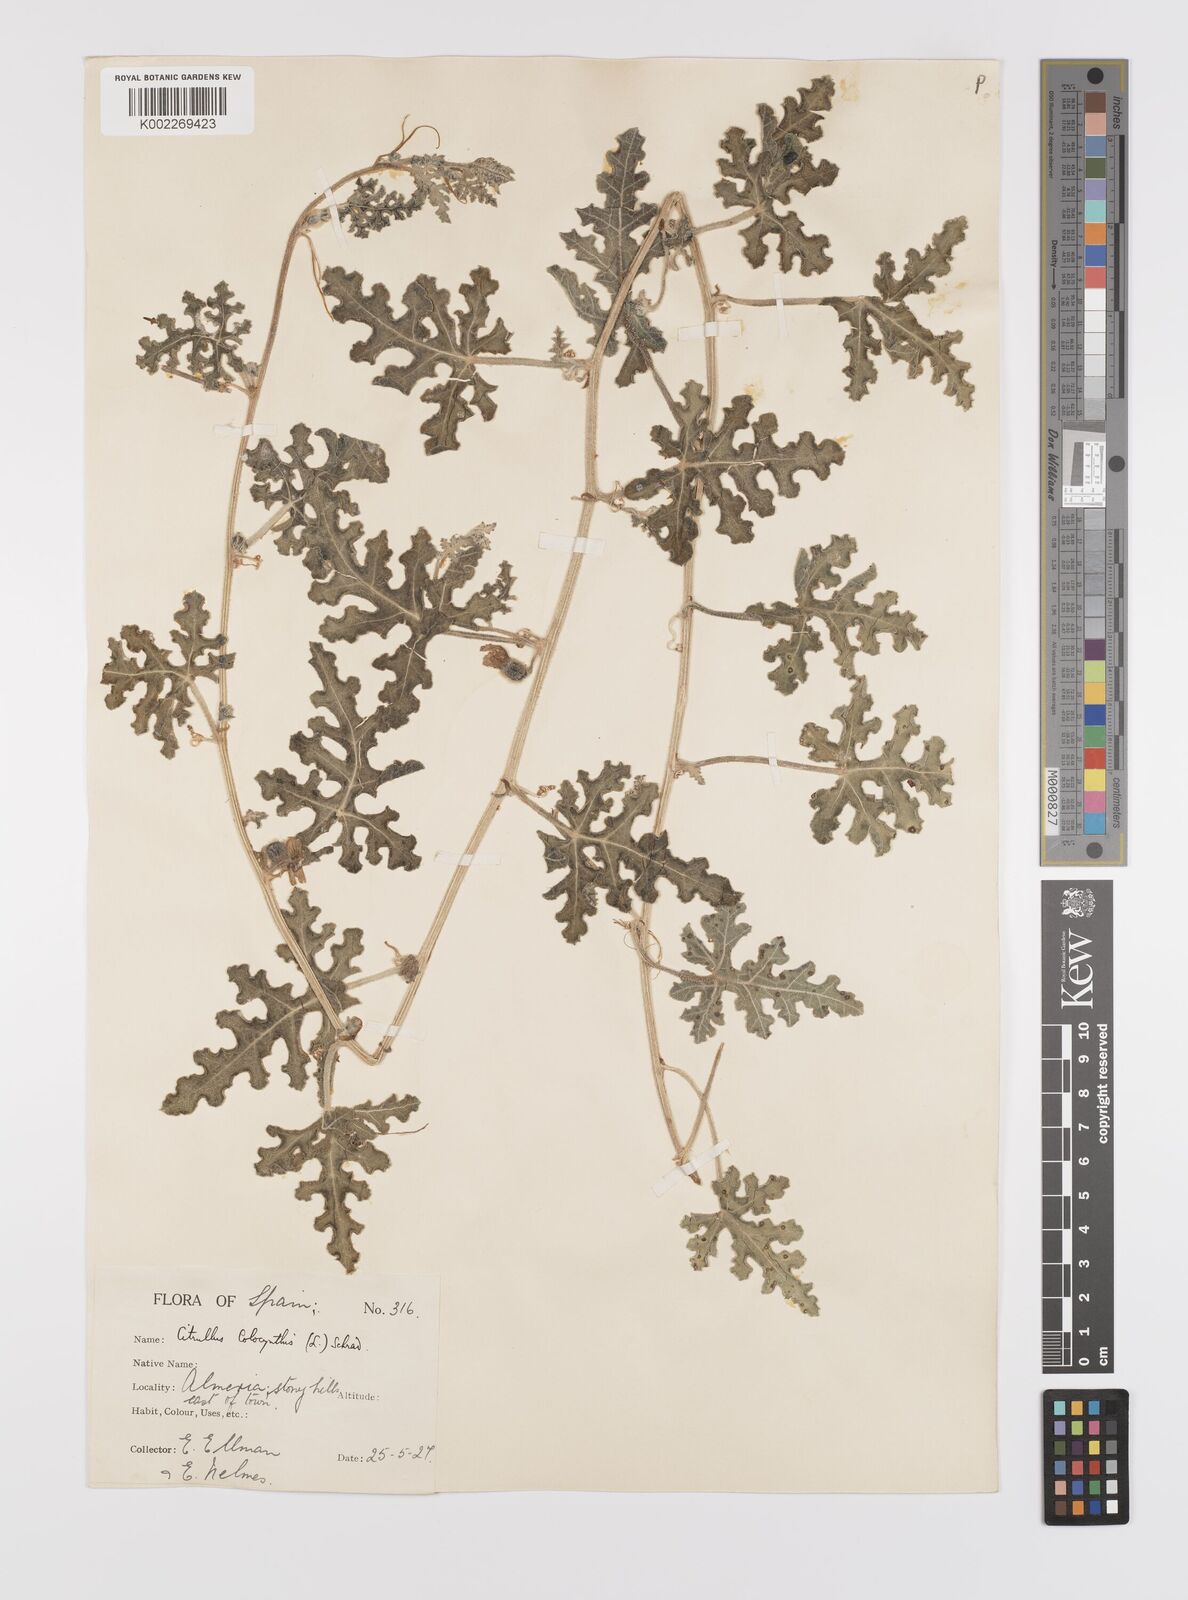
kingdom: Plantae
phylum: Tracheophyta
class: Magnoliopsida
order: Cucurbitales
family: Cucurbitaceae
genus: Citrullus
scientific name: Citrullus colocynthis
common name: Colocynth
